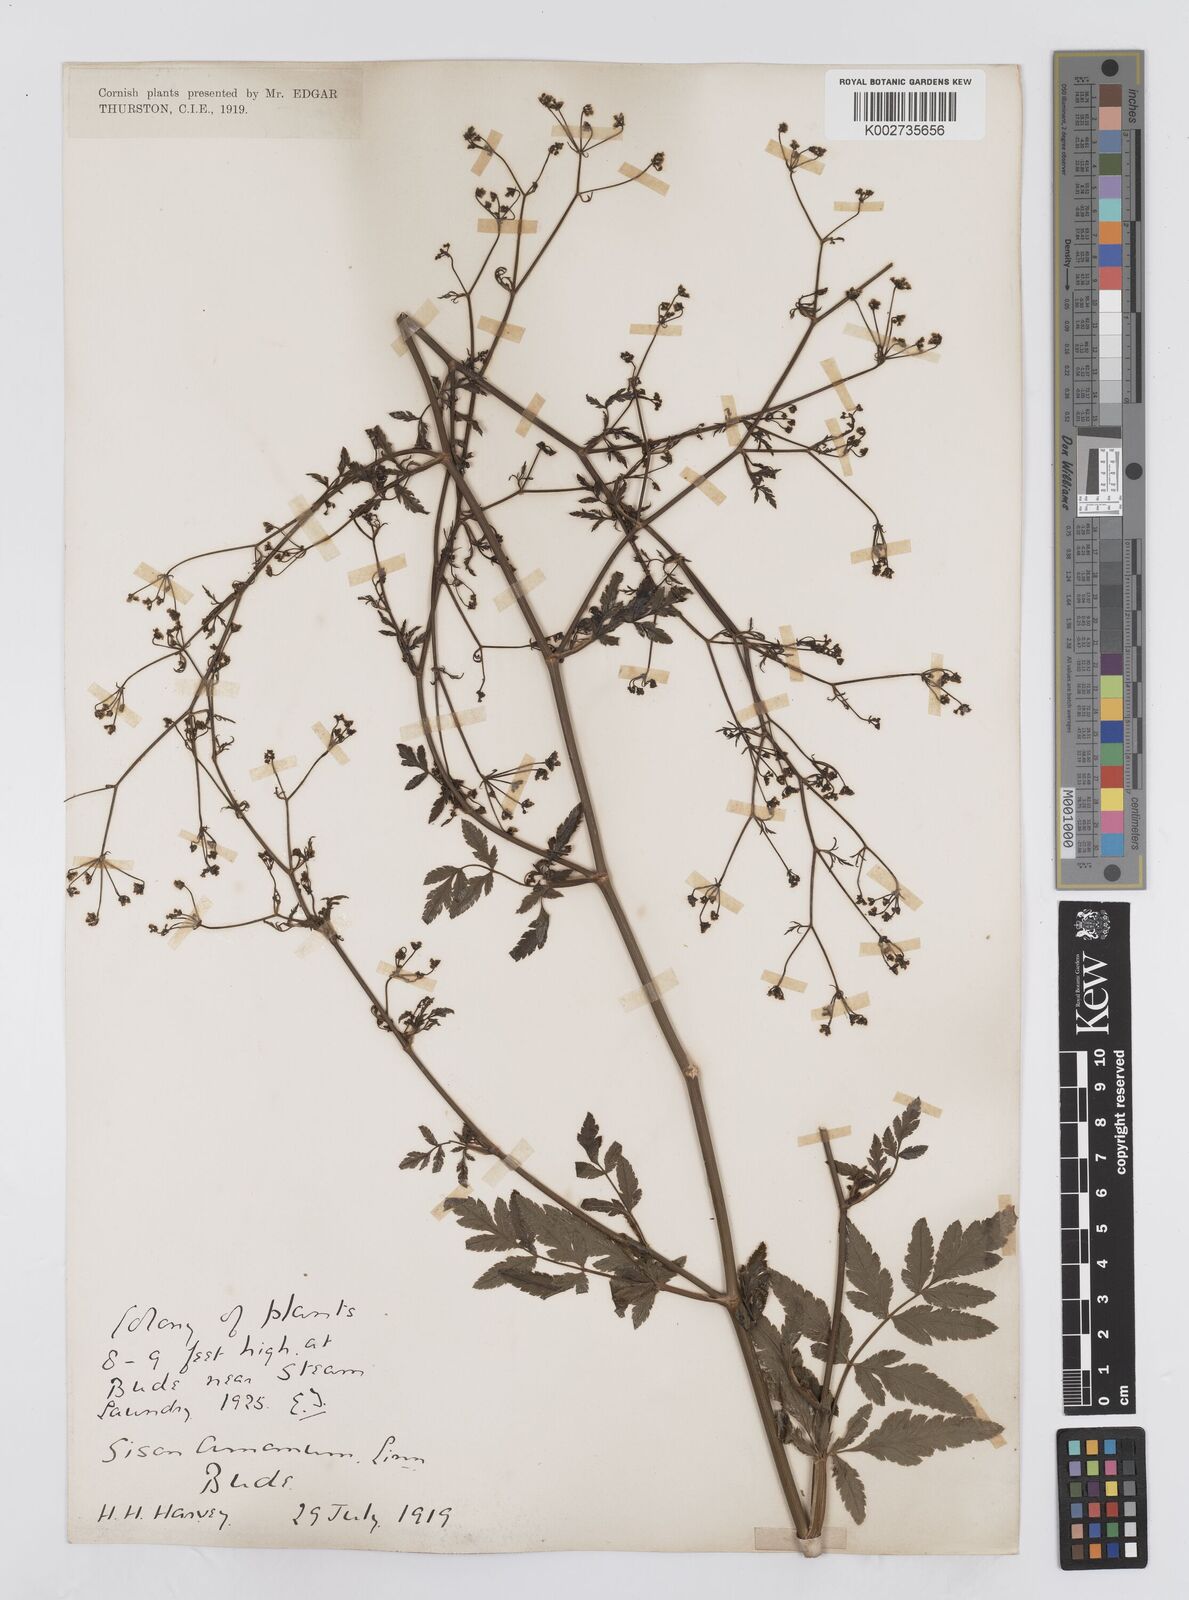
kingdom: Plantae
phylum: Tracheophyta
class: Magnoliopsida
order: Apiales
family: Apiaceae
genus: Sison
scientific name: Sison amomum
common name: Stone-parsley
